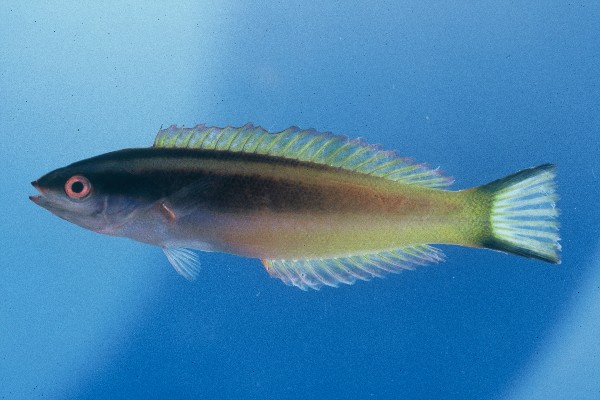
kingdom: Animalia
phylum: Chordata
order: Perciformes
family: Labridae
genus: Pseudocoris
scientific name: Pseudocoris occidentalis
